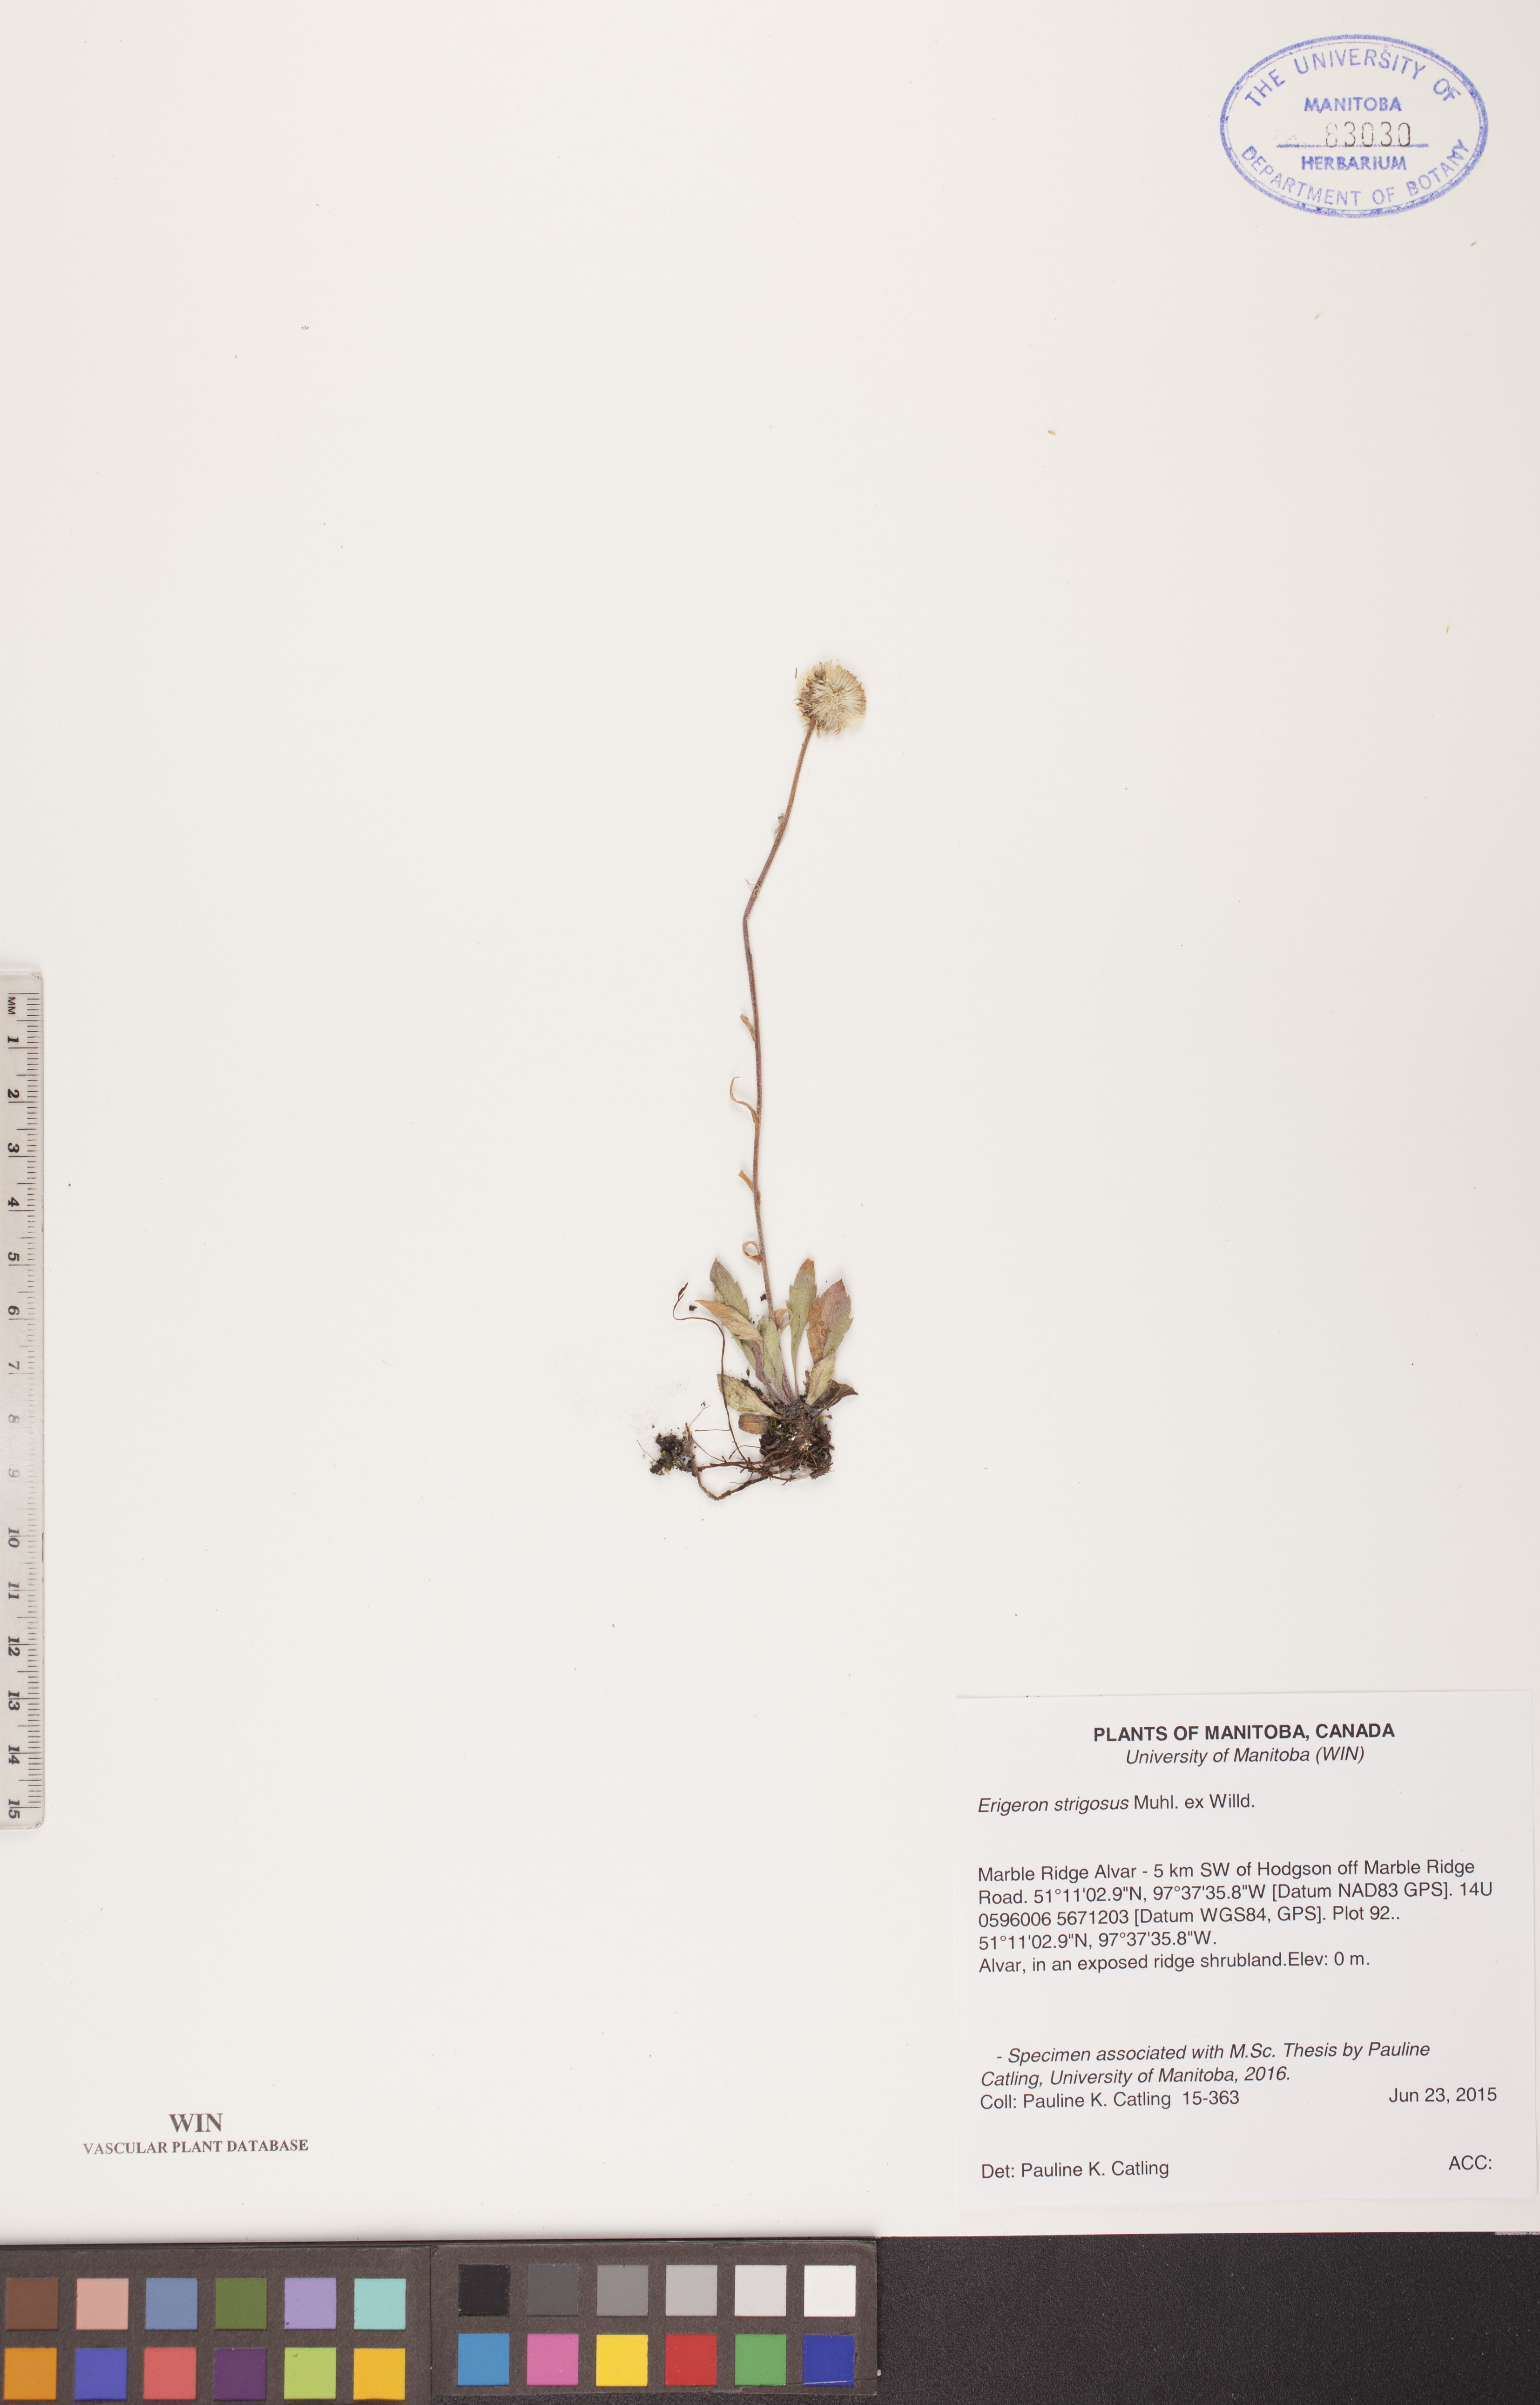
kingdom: Plantae
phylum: Tracheophyta
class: Magnoliopsida
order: Asterales
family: Asteraceae
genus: Erigeron
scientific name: Erigeron strigosus
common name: Common eastern fleabane
